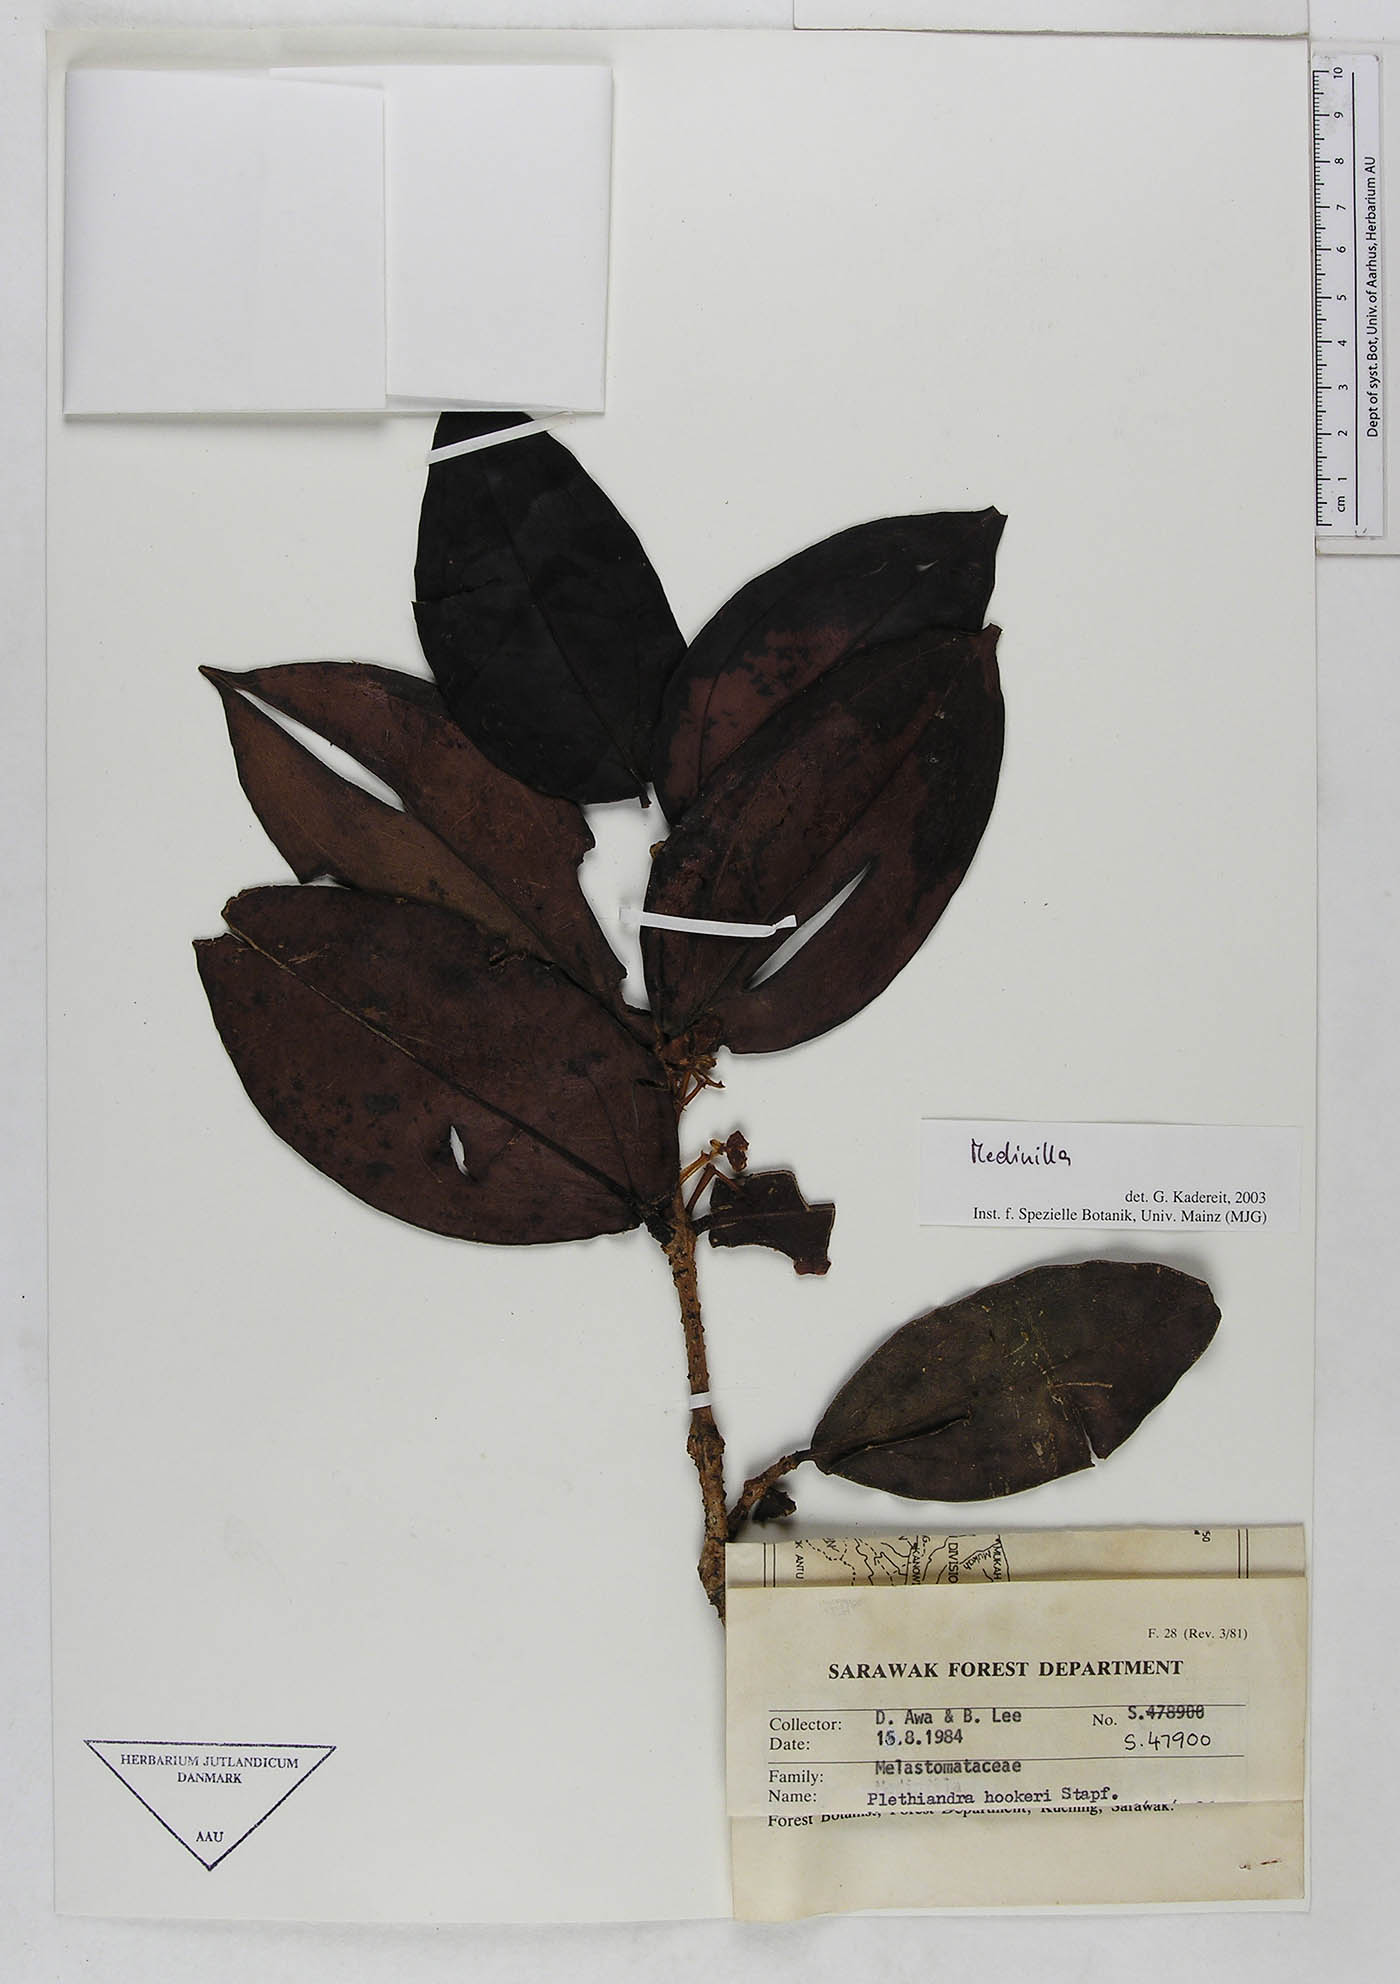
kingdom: Plantae
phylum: Tracheophyta
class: Magnoliopsida
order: Myrtales
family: Melastomataceae
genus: Medinilla
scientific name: Medinilla
